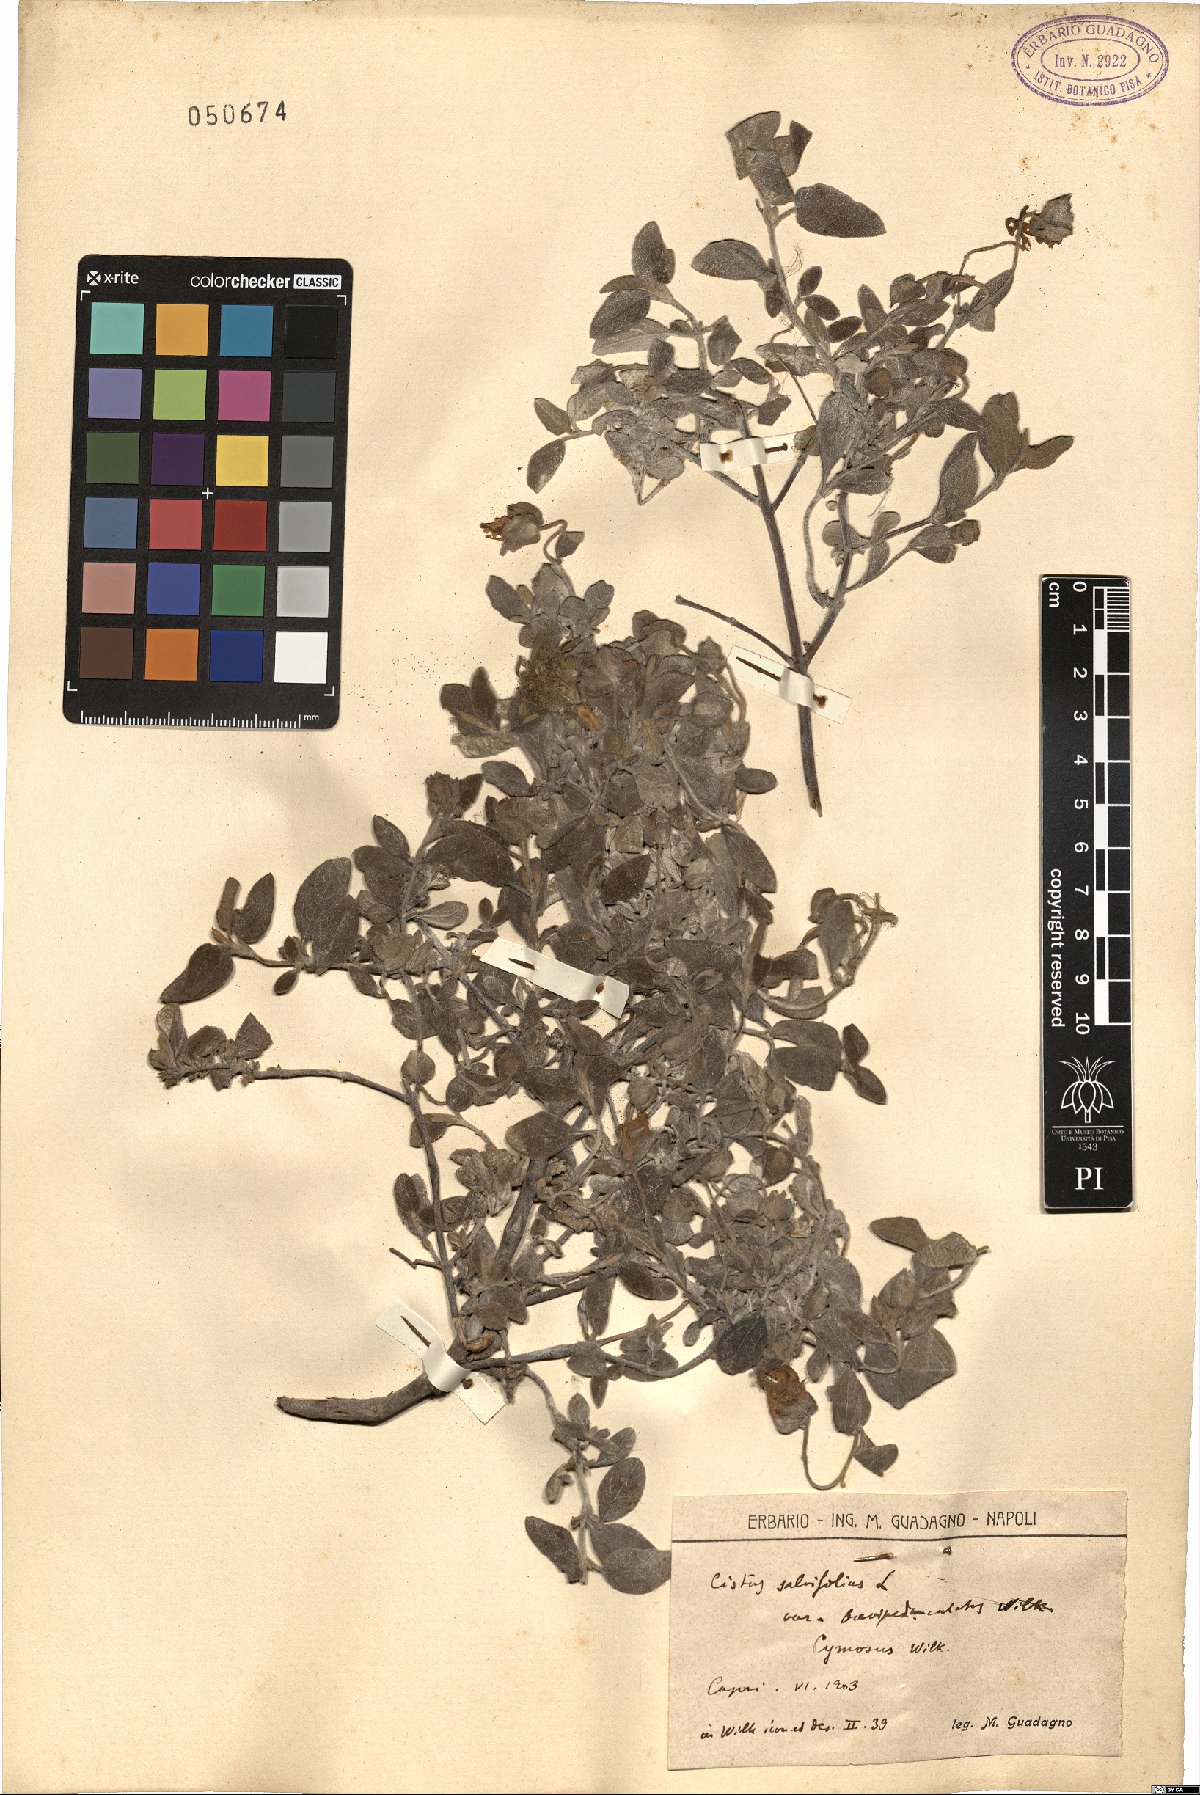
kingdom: Plantae
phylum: Tracheophyta
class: Magnoliopsida
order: Malvales
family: Cistaceae
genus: Cistus
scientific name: Cistus salviifolius
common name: Salvia cistus
